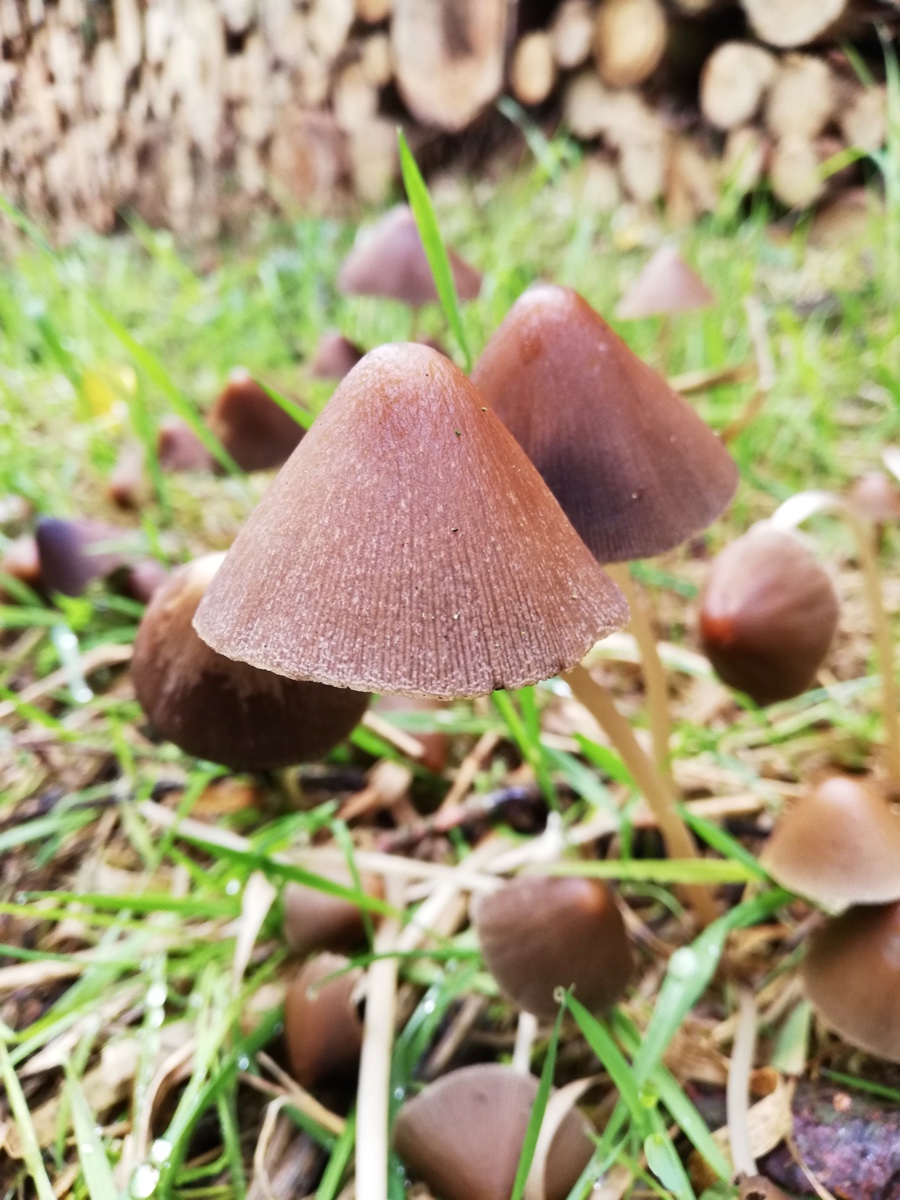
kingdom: Fungi
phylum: Basidiomycota
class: Agaricomycetes
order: Agaricales
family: Psathyrellaceae
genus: Parasola
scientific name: Parasola conopilea
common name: kegle-hjulhat
